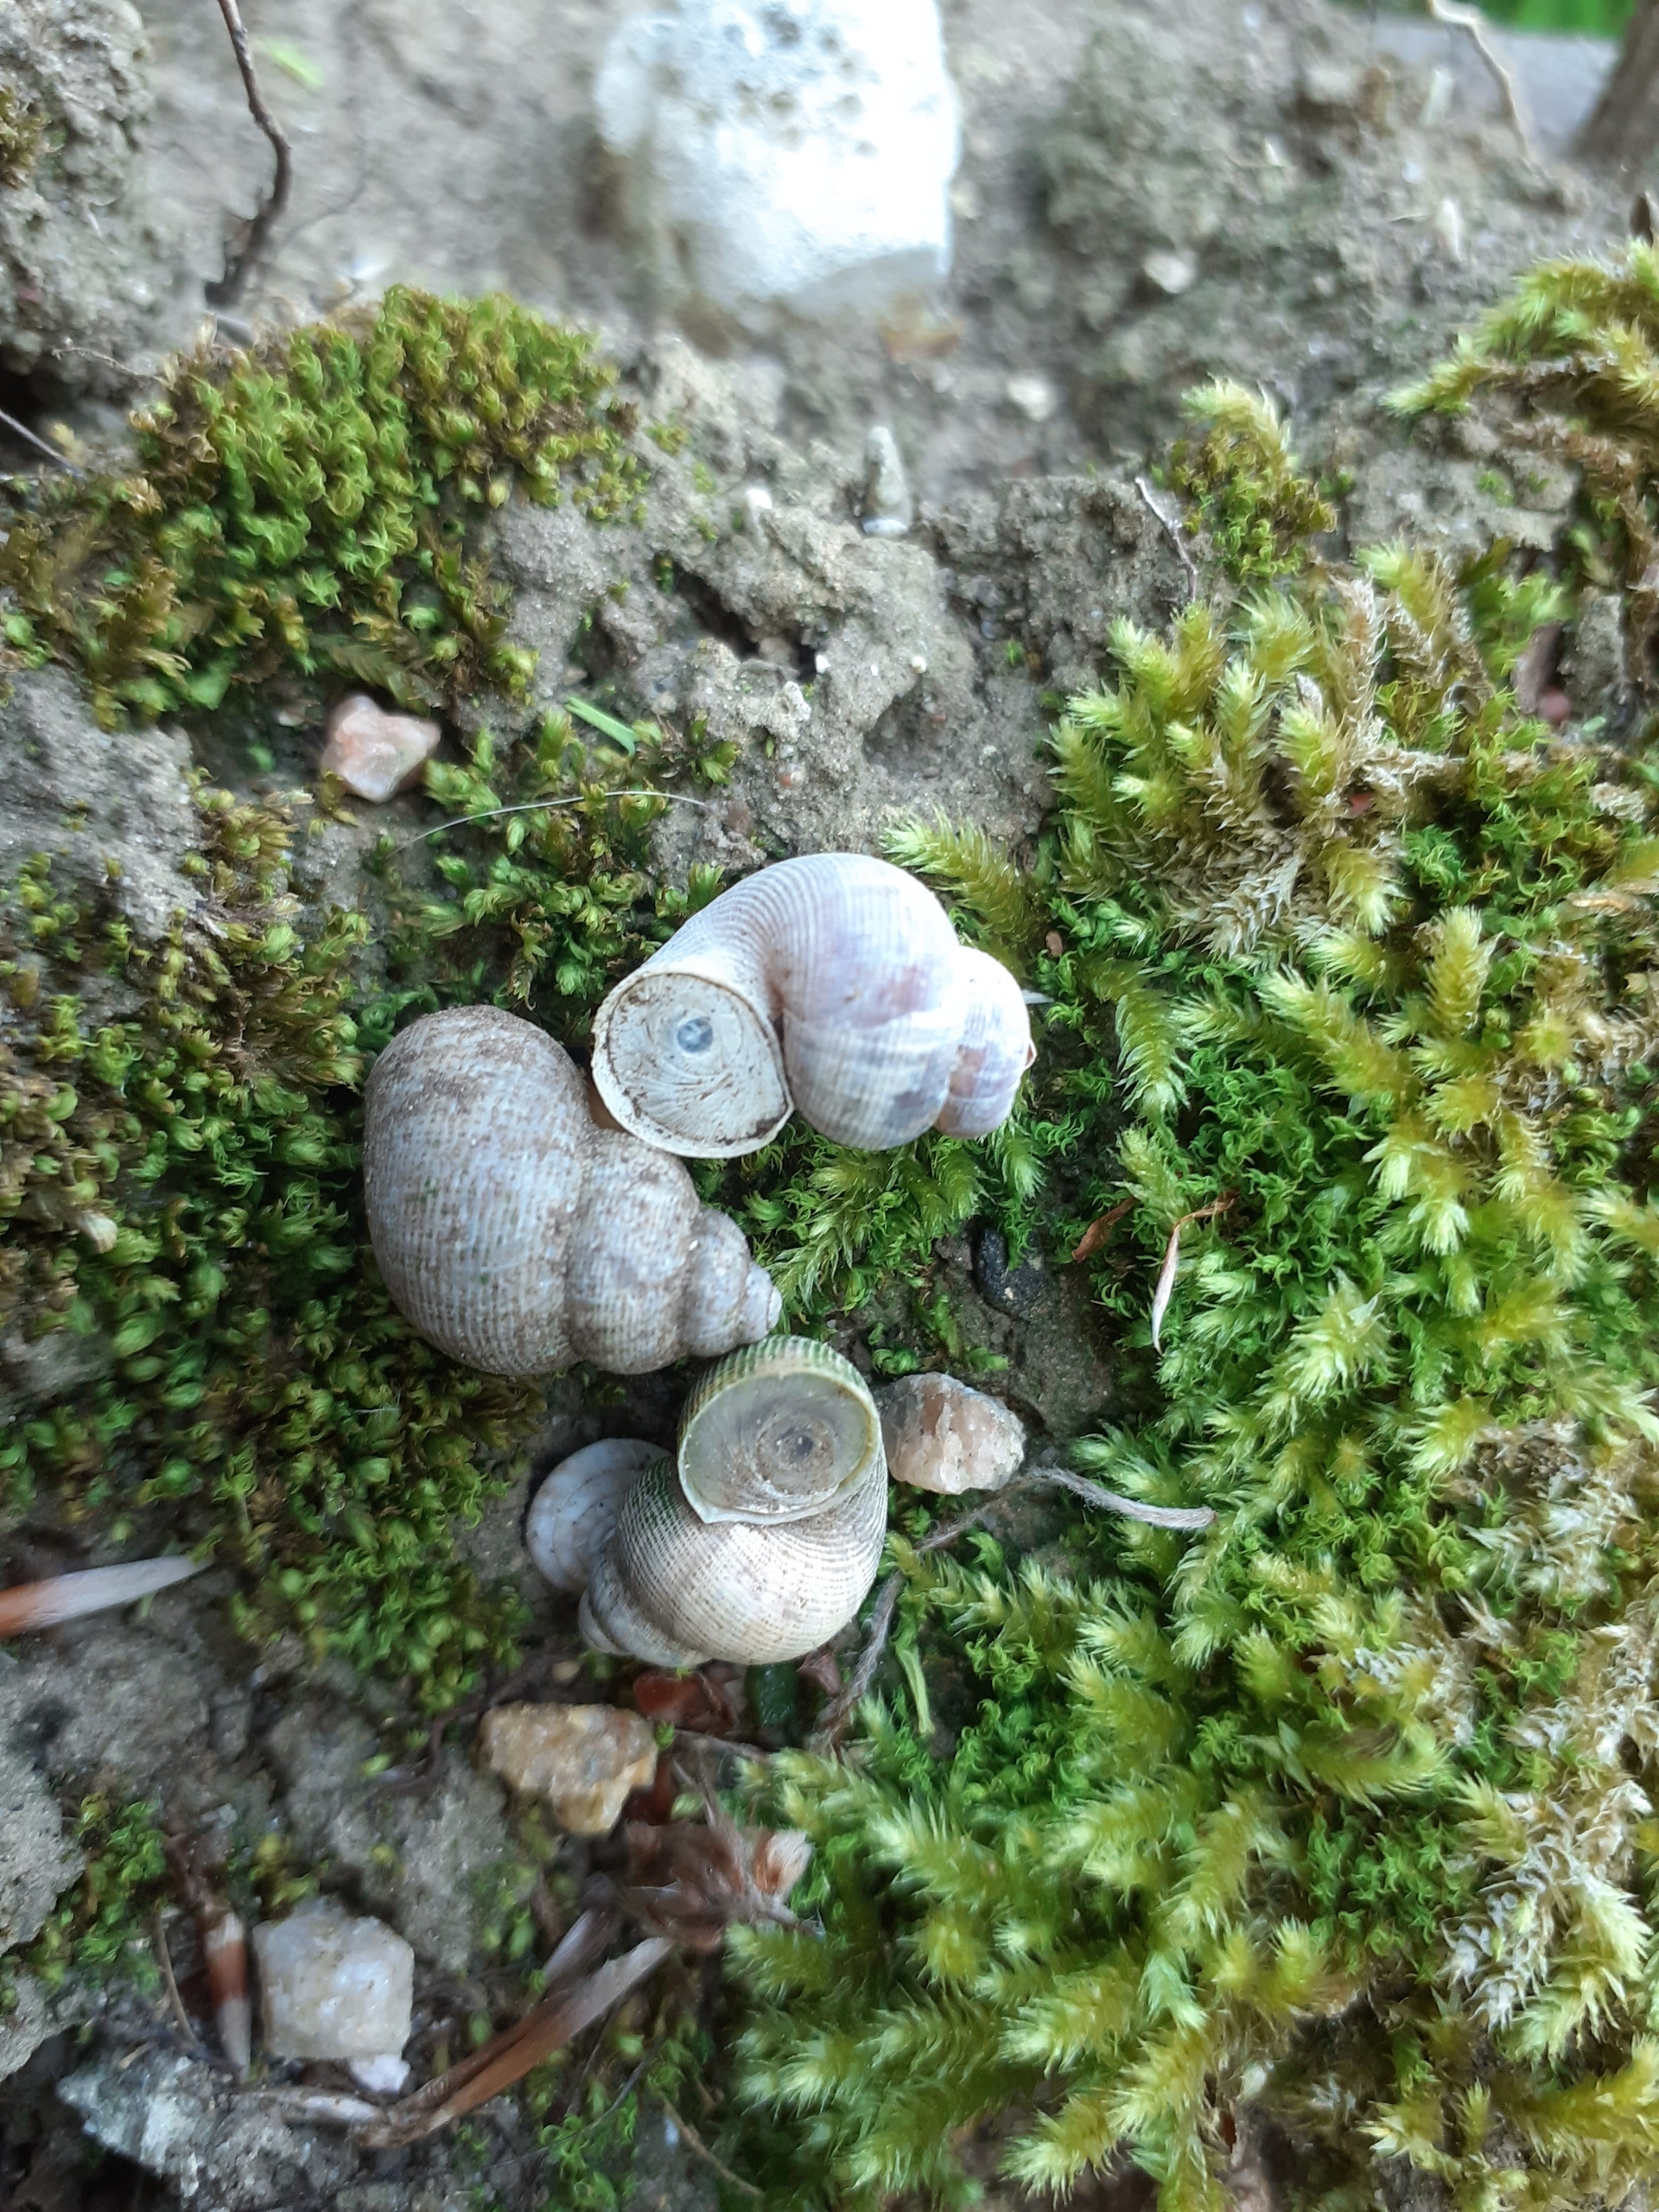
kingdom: Animalia
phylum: Mollusca
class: Gastropoda
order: Littorinimorpha
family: Pomatiidae
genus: Pomatias
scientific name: Pomatias elegans
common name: Elefantsnegl
